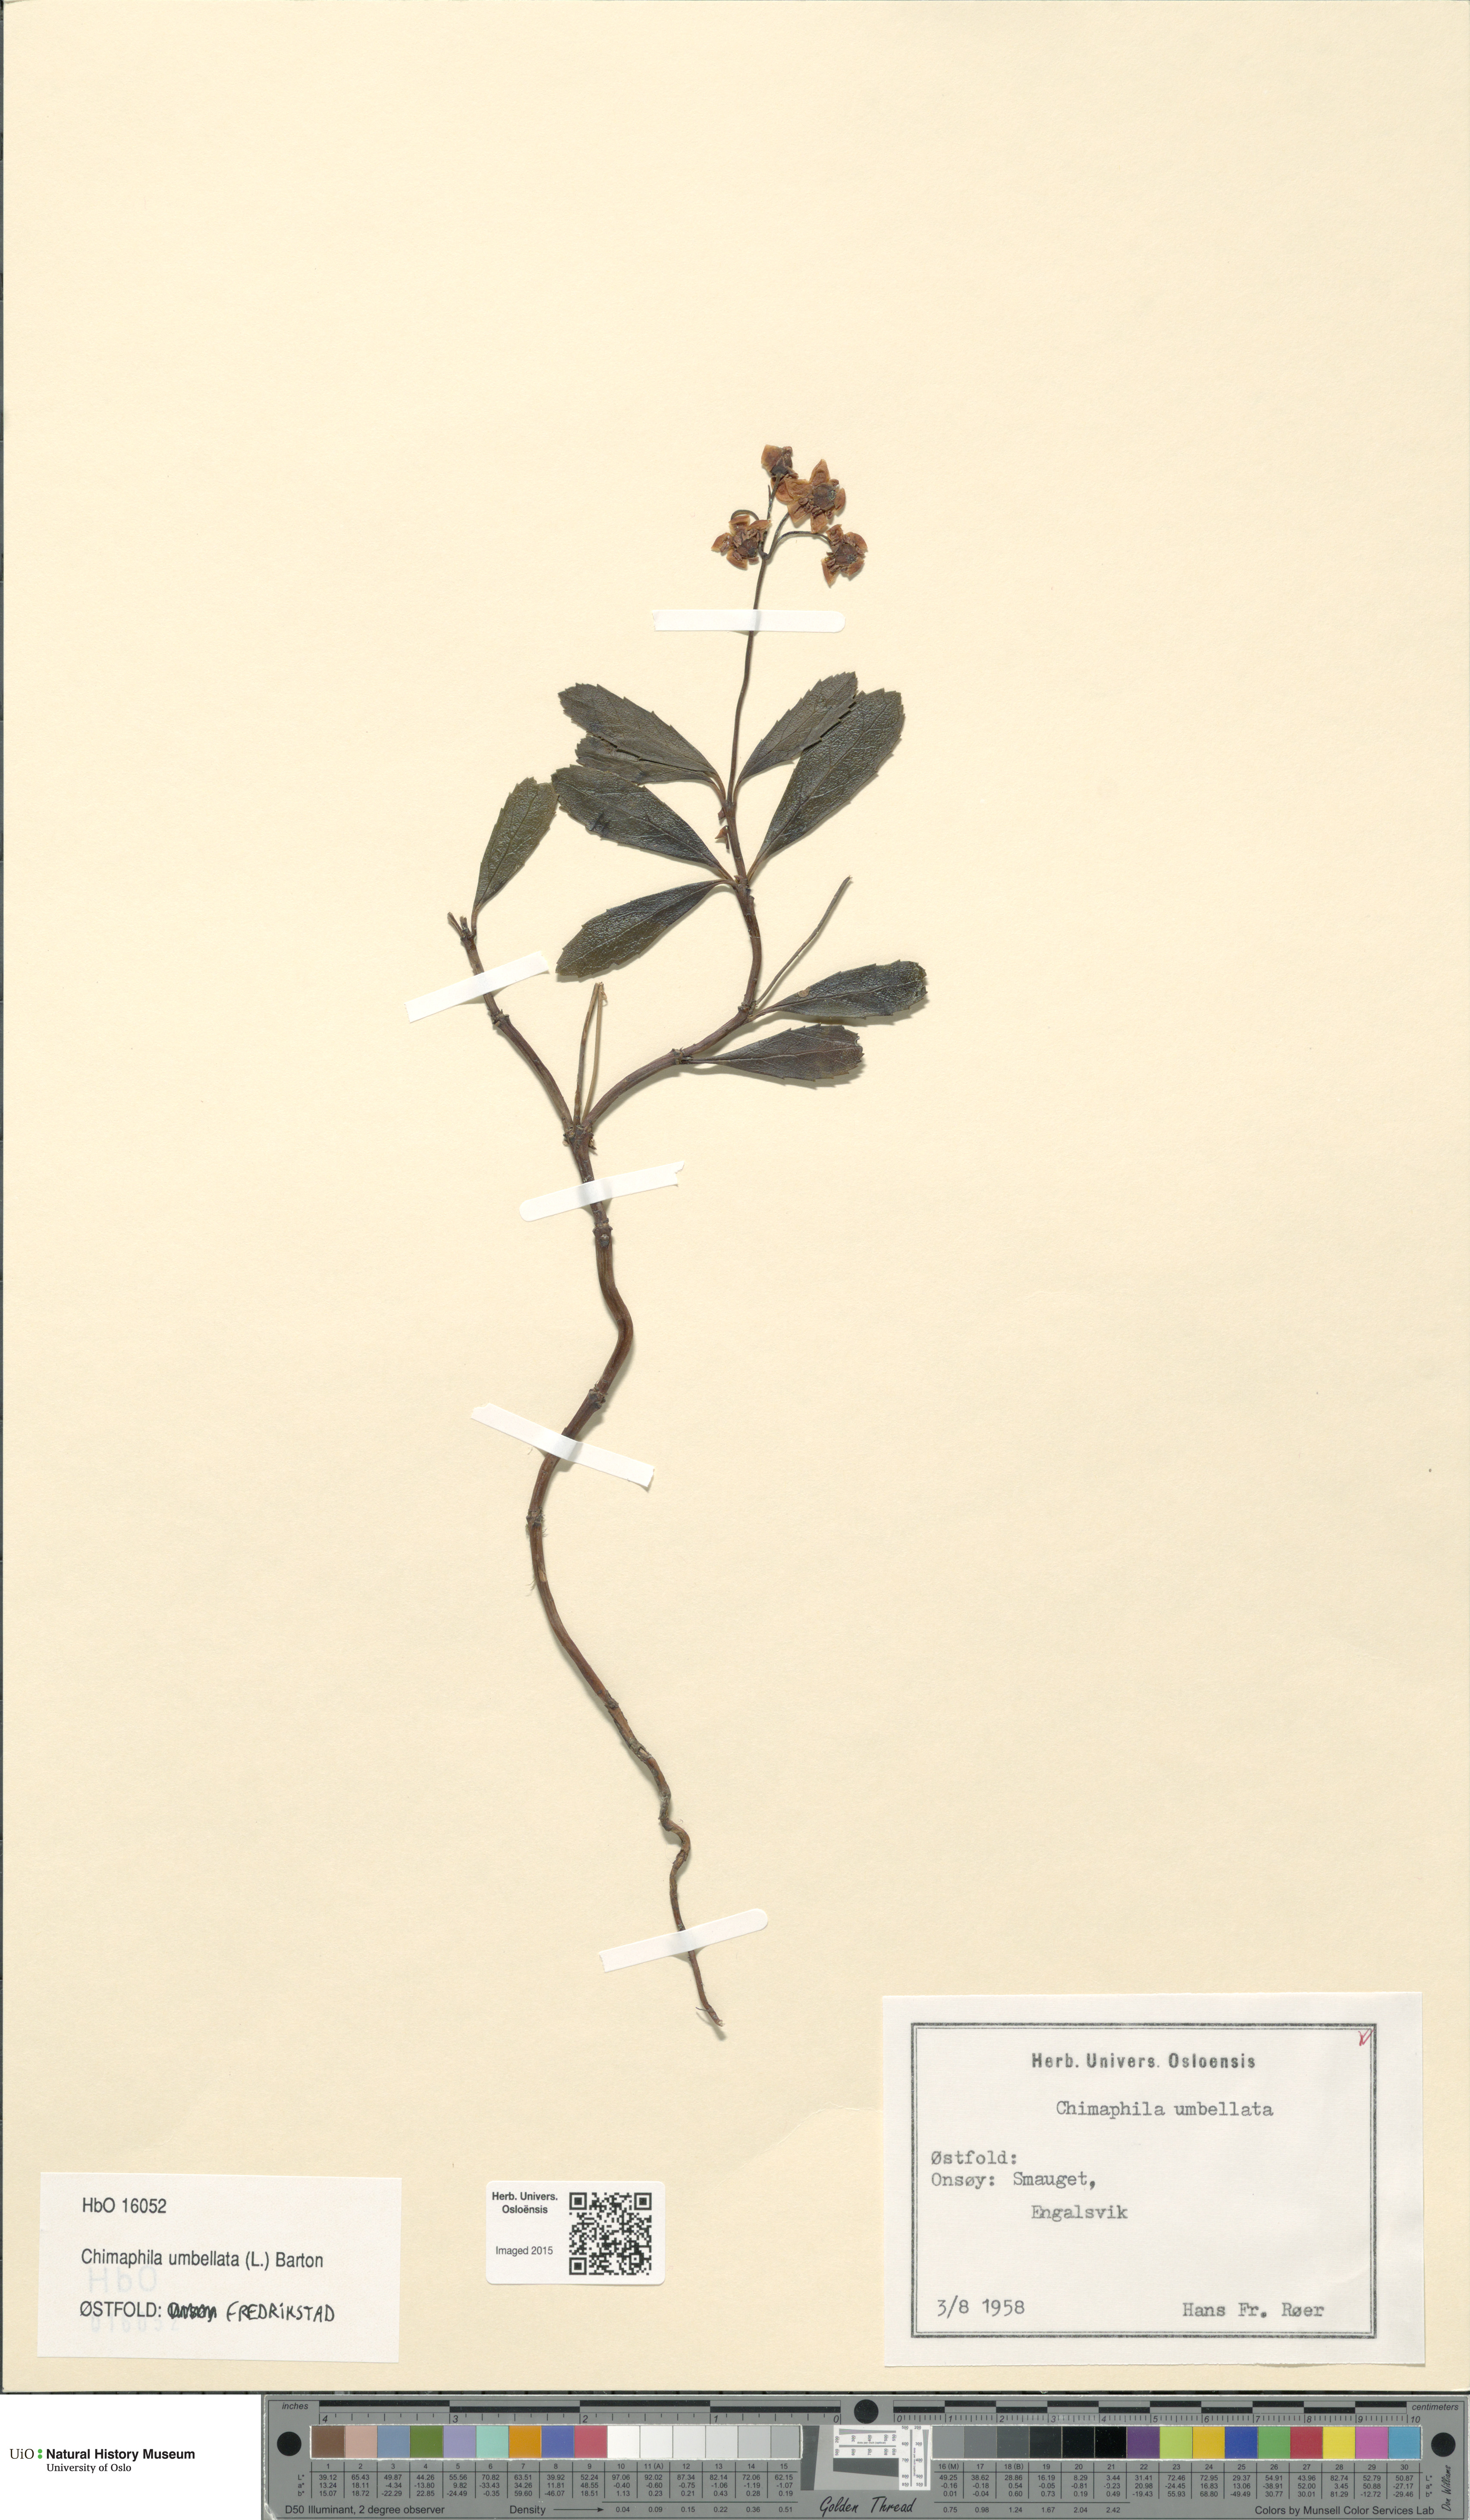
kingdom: Plantae
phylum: Tracheophyta
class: Magnoliopsida
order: Ericales
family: Ericaceae
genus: Chimaphila
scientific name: Chimaphila umbellata
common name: Pipsissewa
